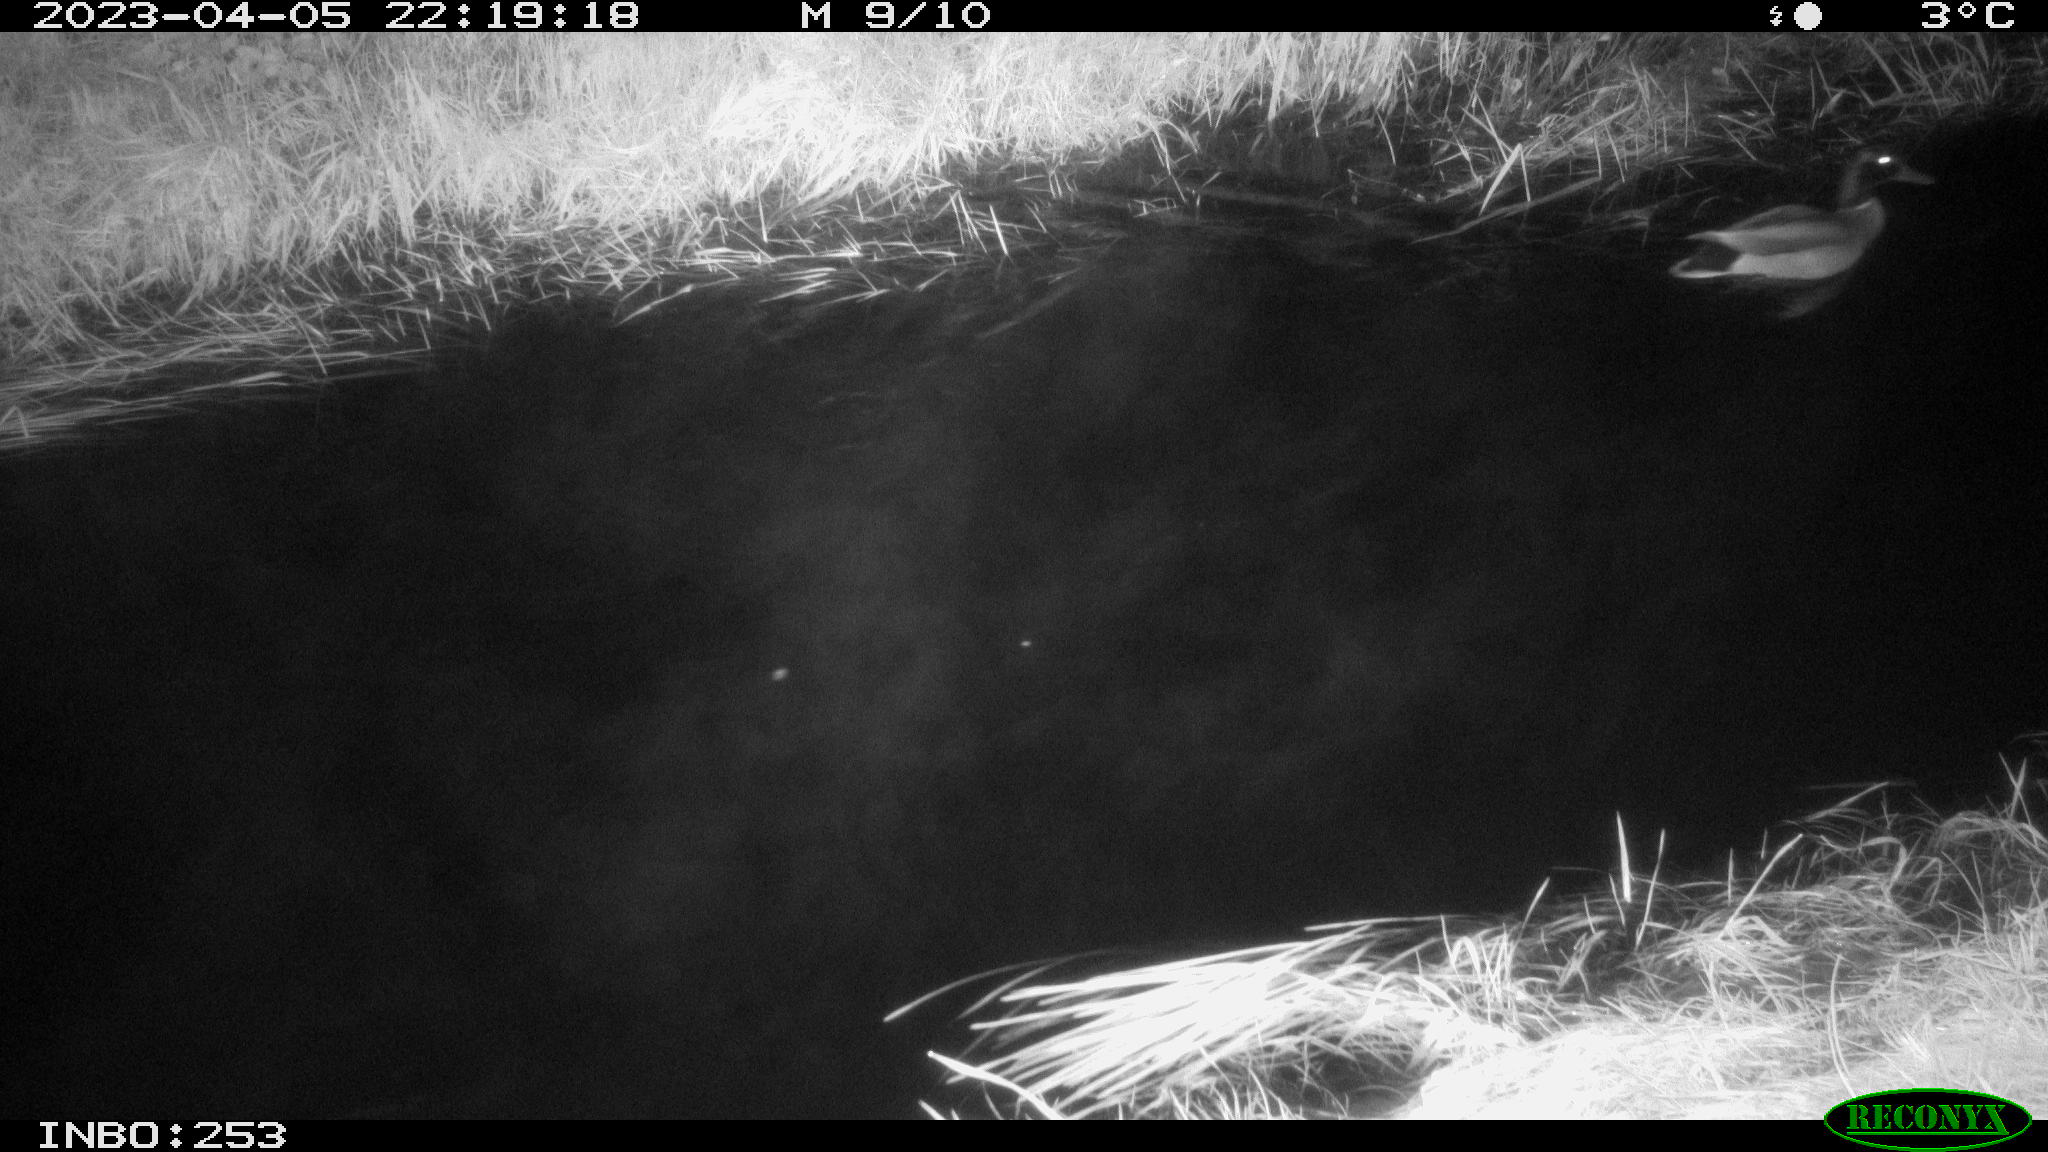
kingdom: Animalia
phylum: Chordata
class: Aves
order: Anseriformes
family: Anatidae
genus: Anas
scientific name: Anas
